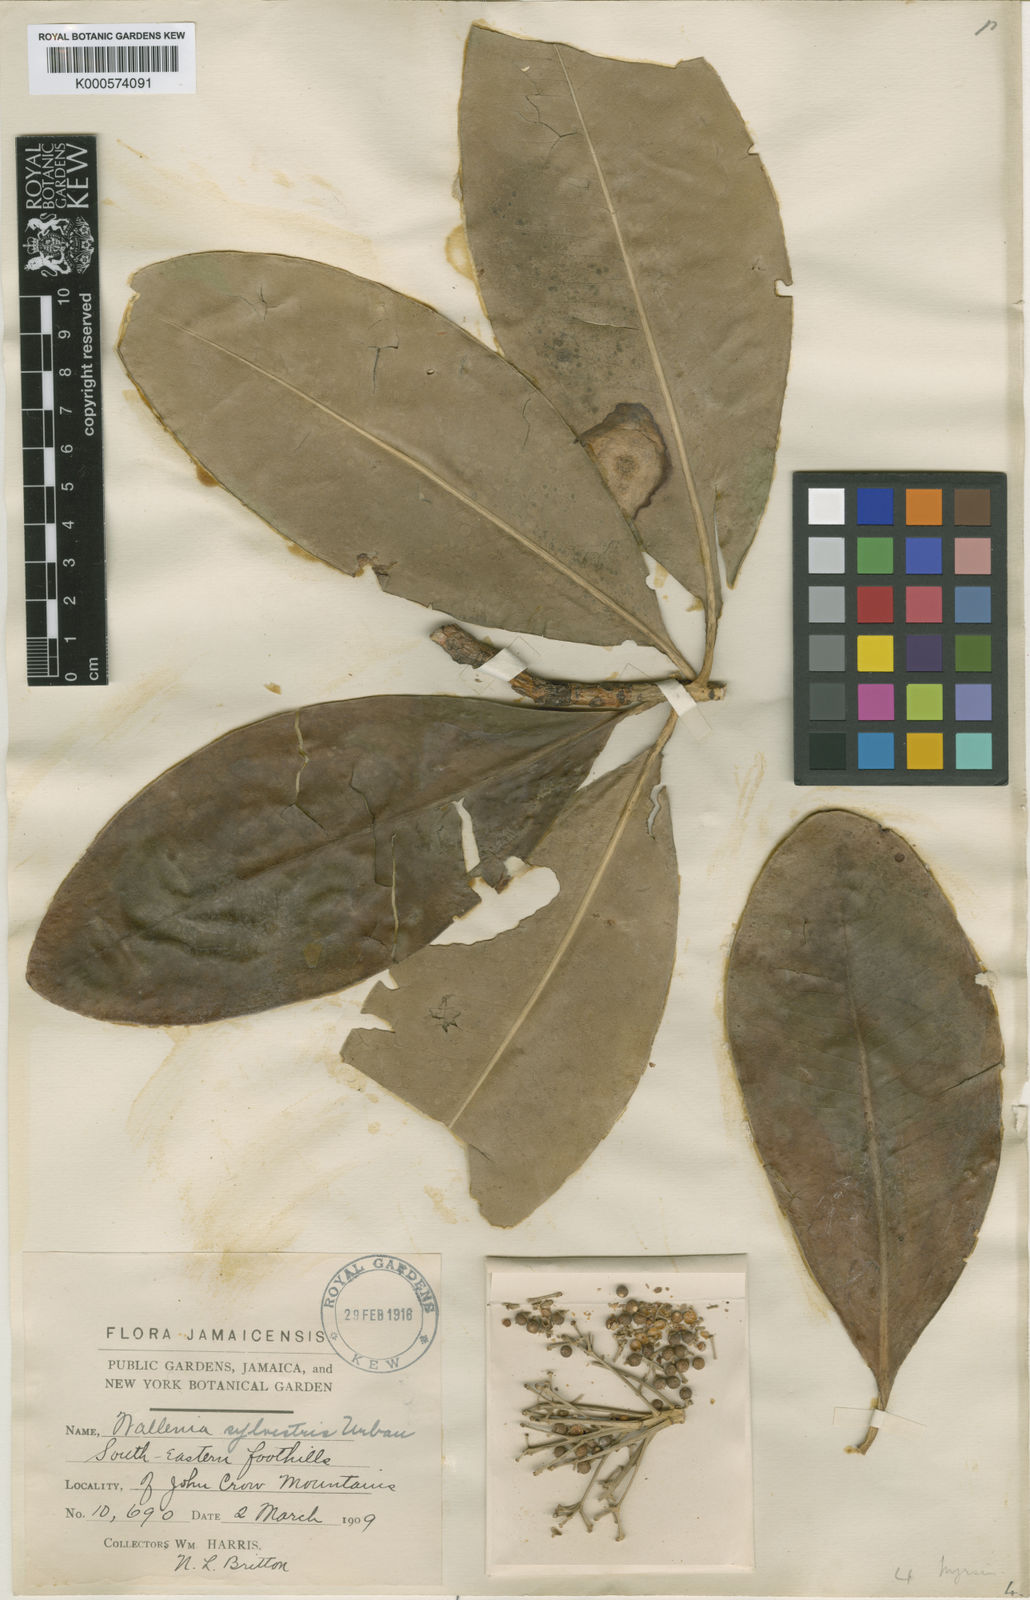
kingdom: Plantae
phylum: Tracheophyta
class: Magnoliopsida
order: Ericales
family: Primulaceae
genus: Wallenia
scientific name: Wallenia sylvestris
